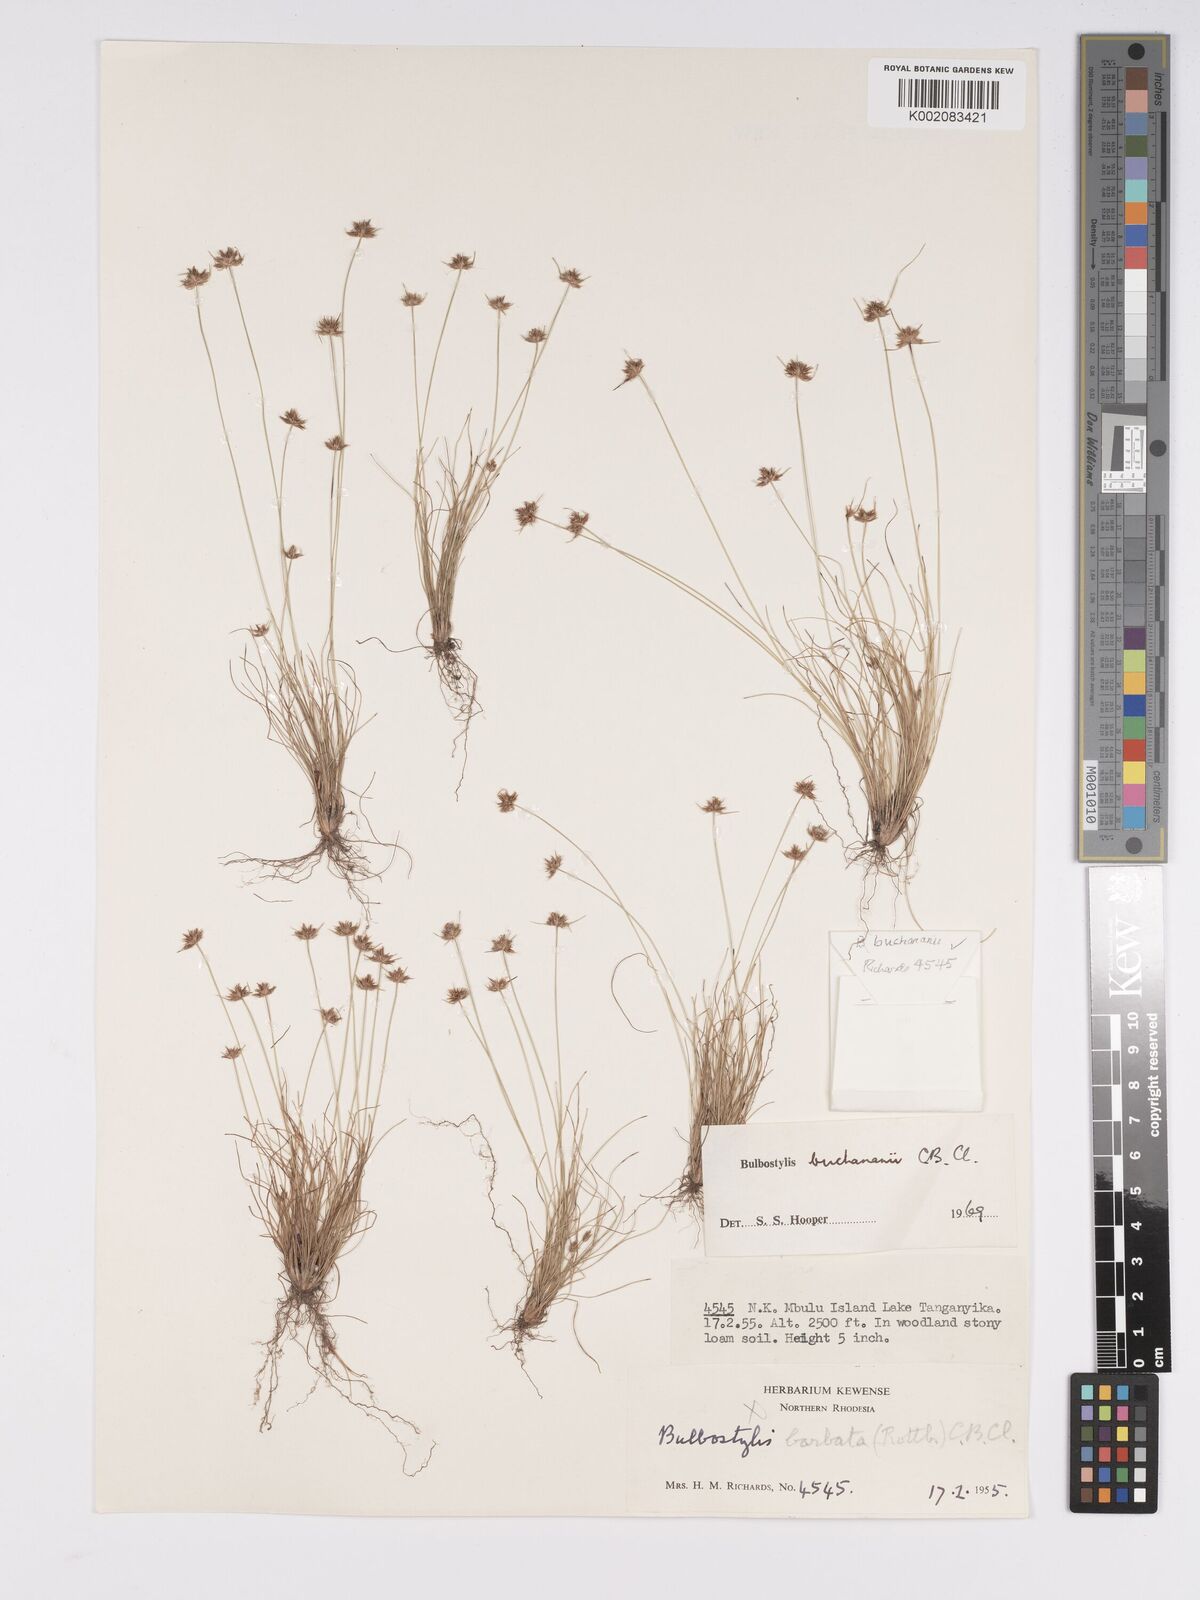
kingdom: Plantae
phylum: Tracheophyta
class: Liliopsida
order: Poales
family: Cyperaceae
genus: Bulbostylis
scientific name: Bulbostylis buchananii
